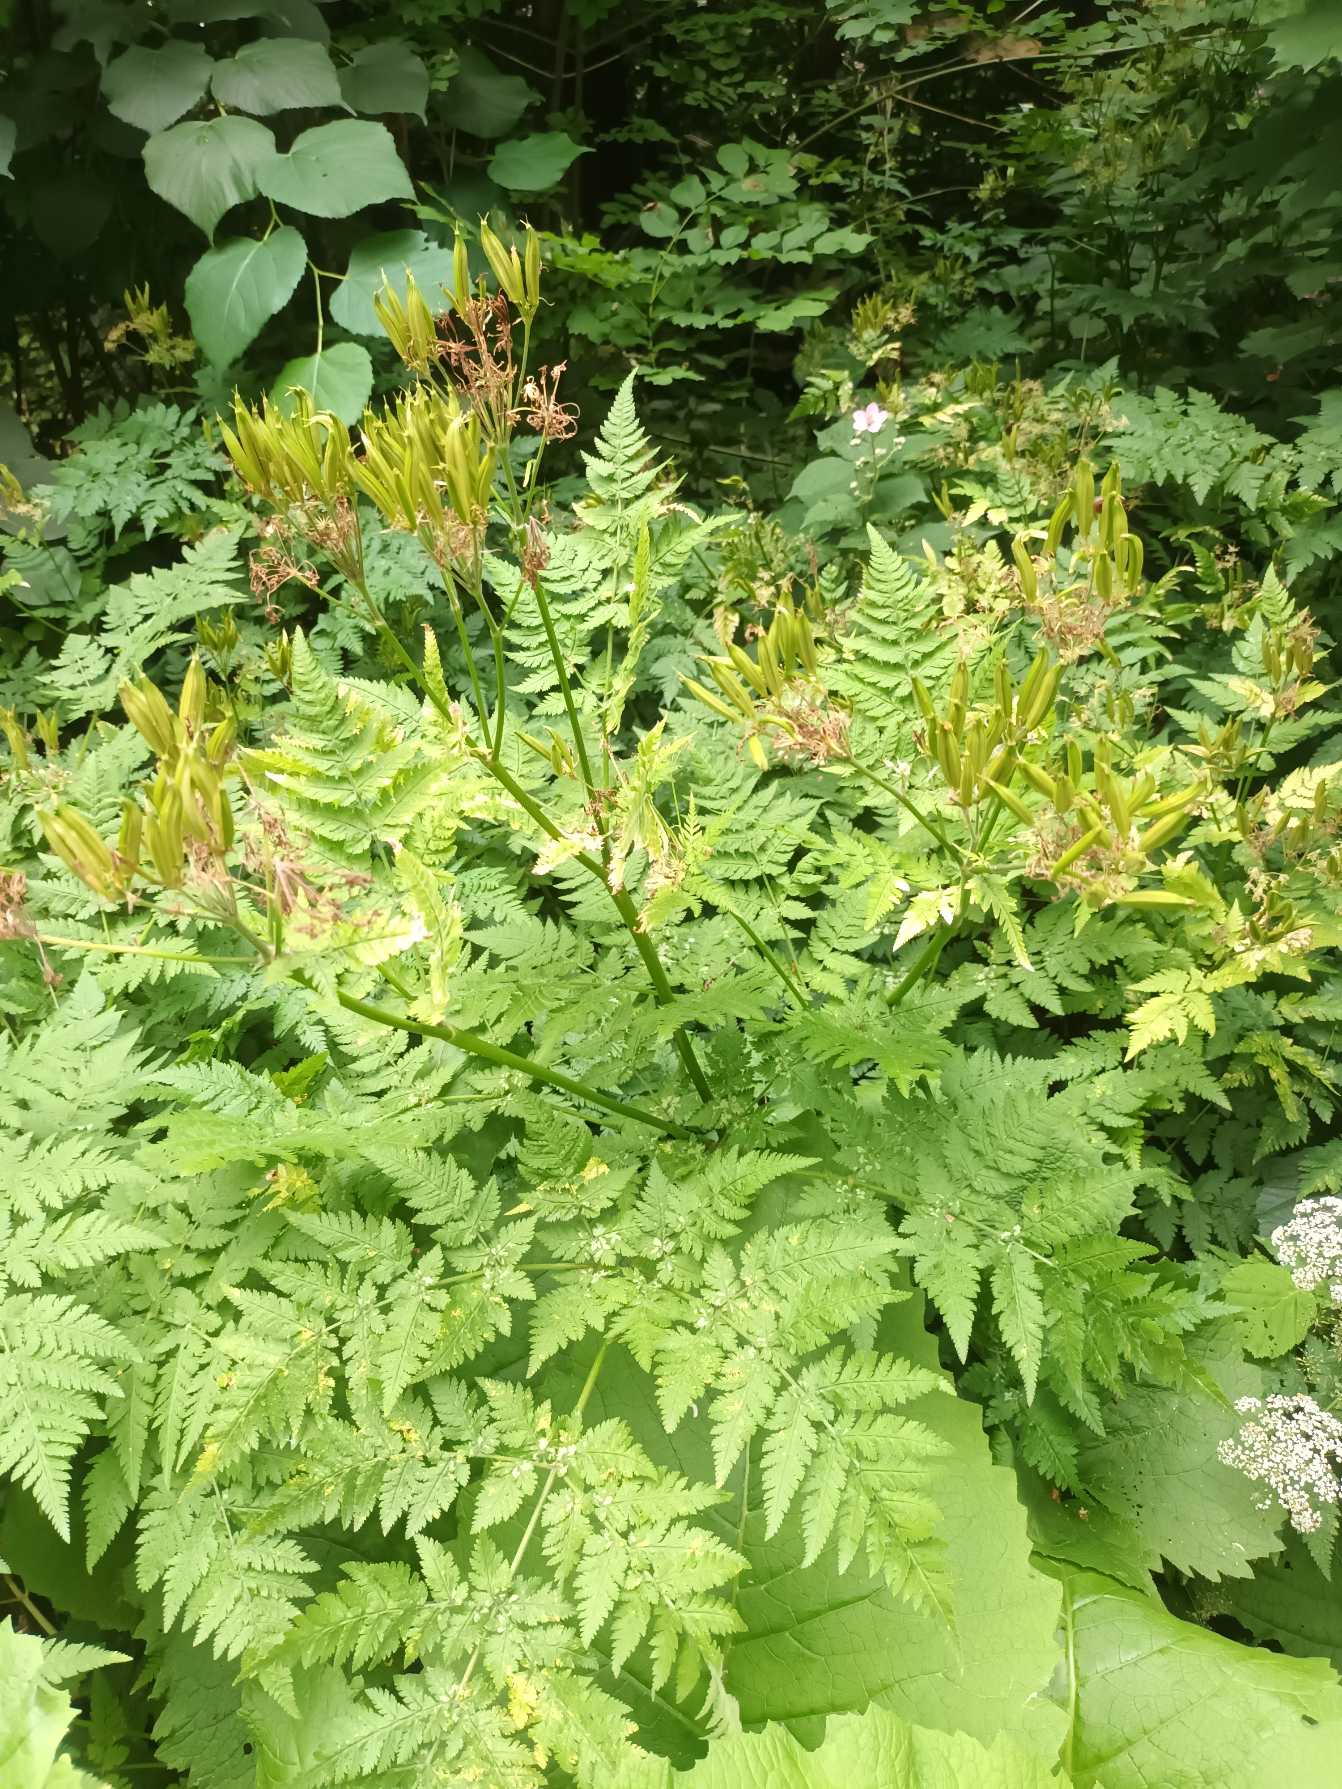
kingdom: Plantae
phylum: Tracheophyta
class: Magnoliopsida
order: Apiales
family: Apiaceae
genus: Myrrhis
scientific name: Myrrhis odorata
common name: Sødskærm
